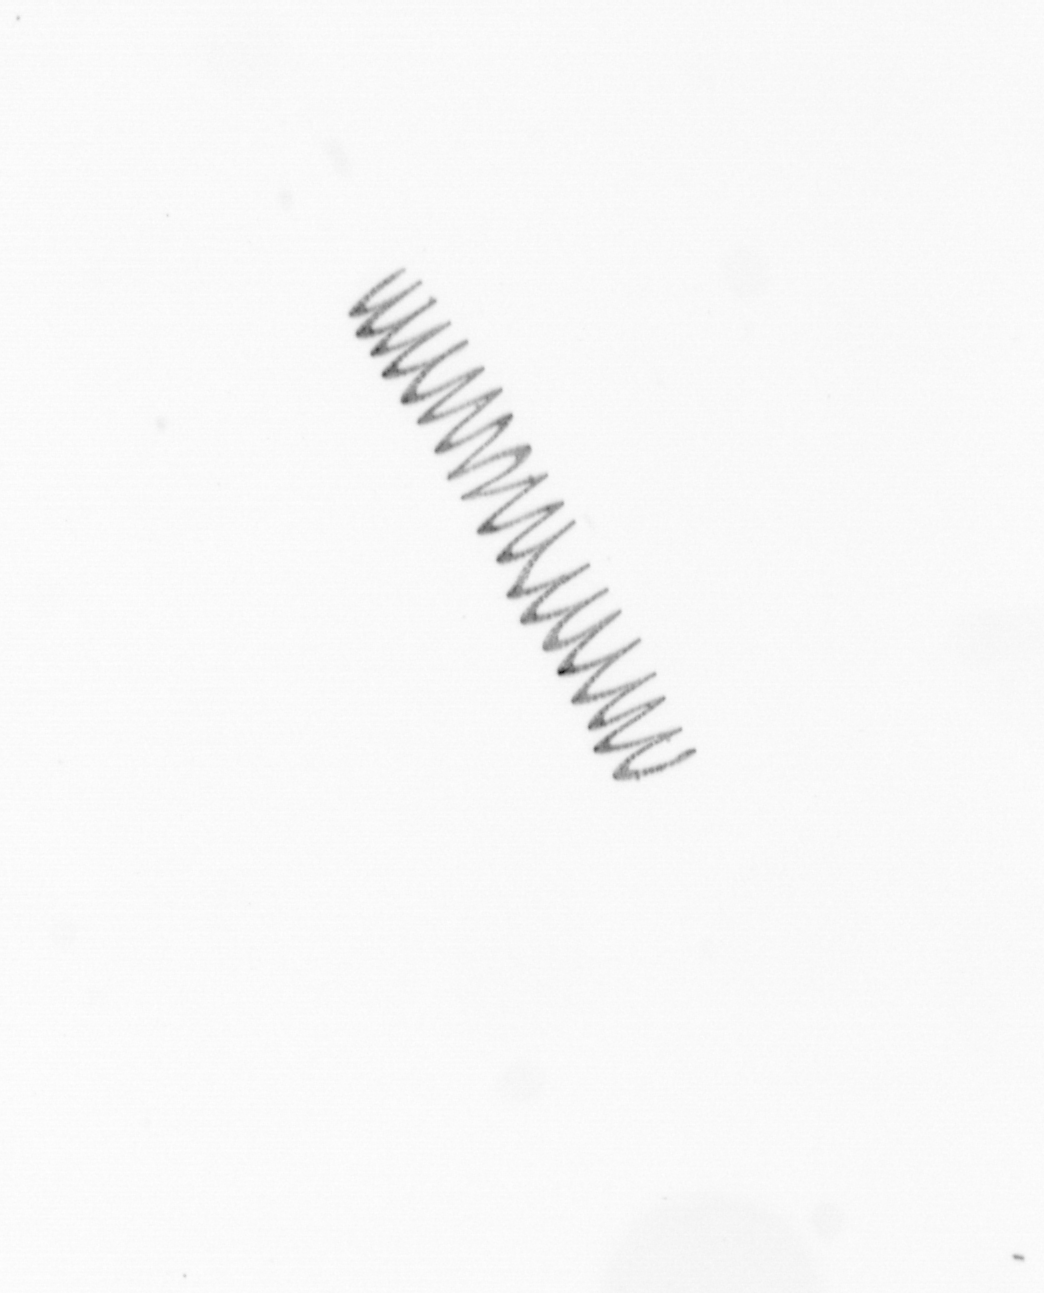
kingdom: Chromista
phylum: Ochrophyta
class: Bacillariophyceae
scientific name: Bacillariophyceae
